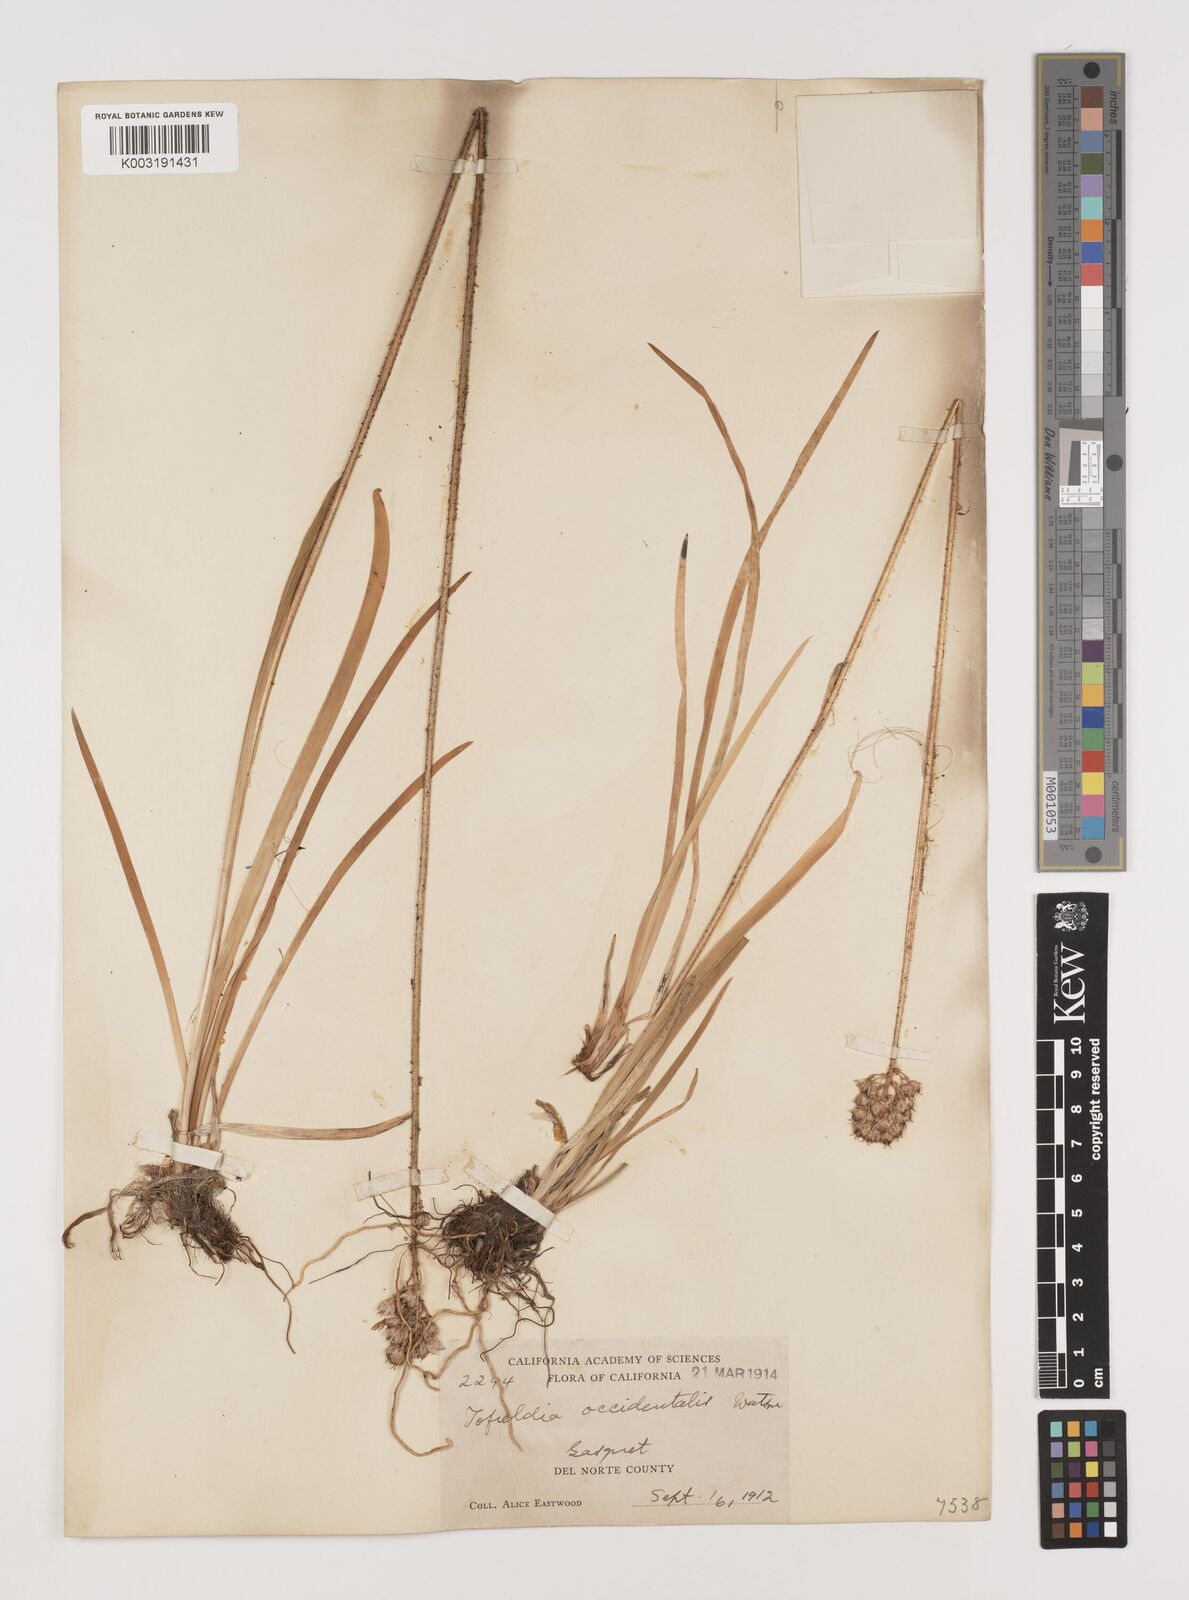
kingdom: Plantae
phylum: Tracheophyta
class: Liliopsida
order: Alismatales
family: Tofieldiaceae
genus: Triantha
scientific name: Triantha occidentalis
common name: Western false asphodel
